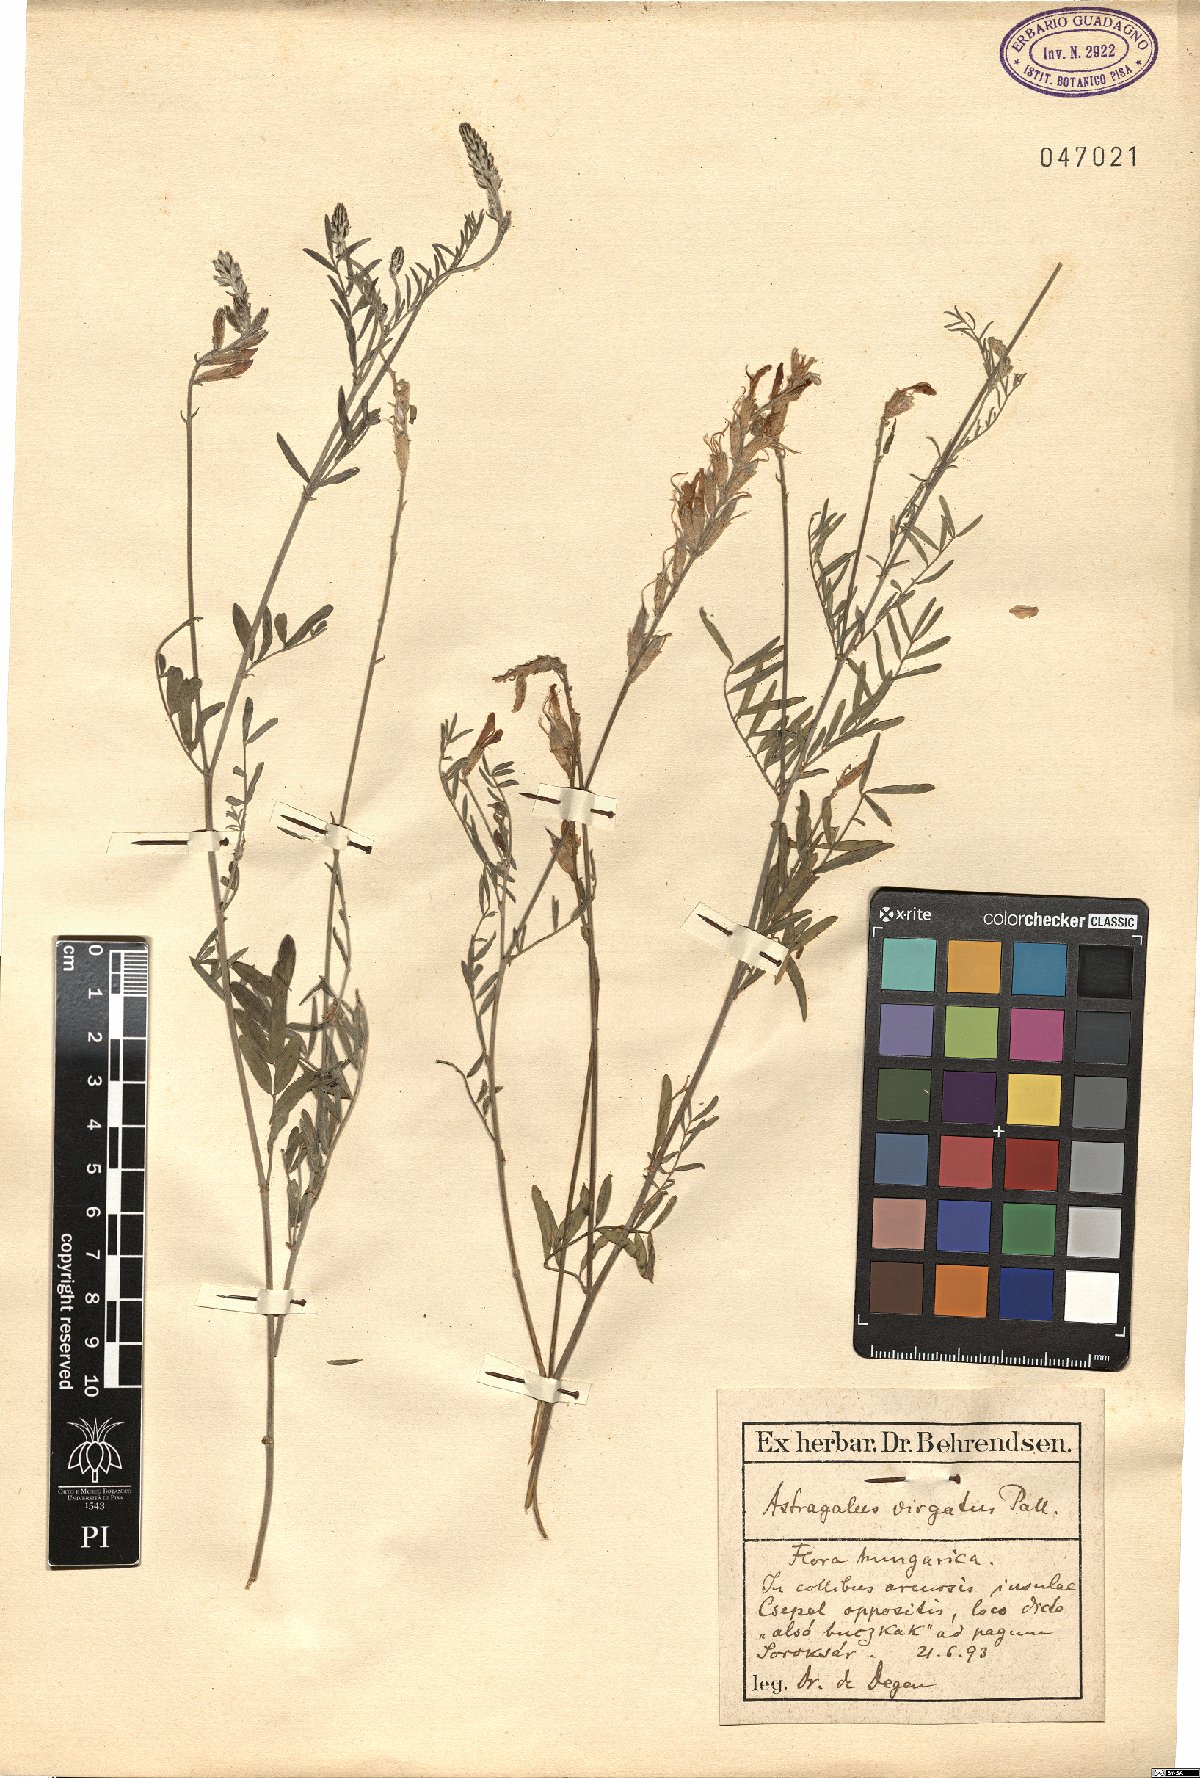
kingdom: Plantae
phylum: Tracheophyta
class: Magnoliopsida
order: Fabales
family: Fabaceae
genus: Astragalus
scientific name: Astragalus varius
